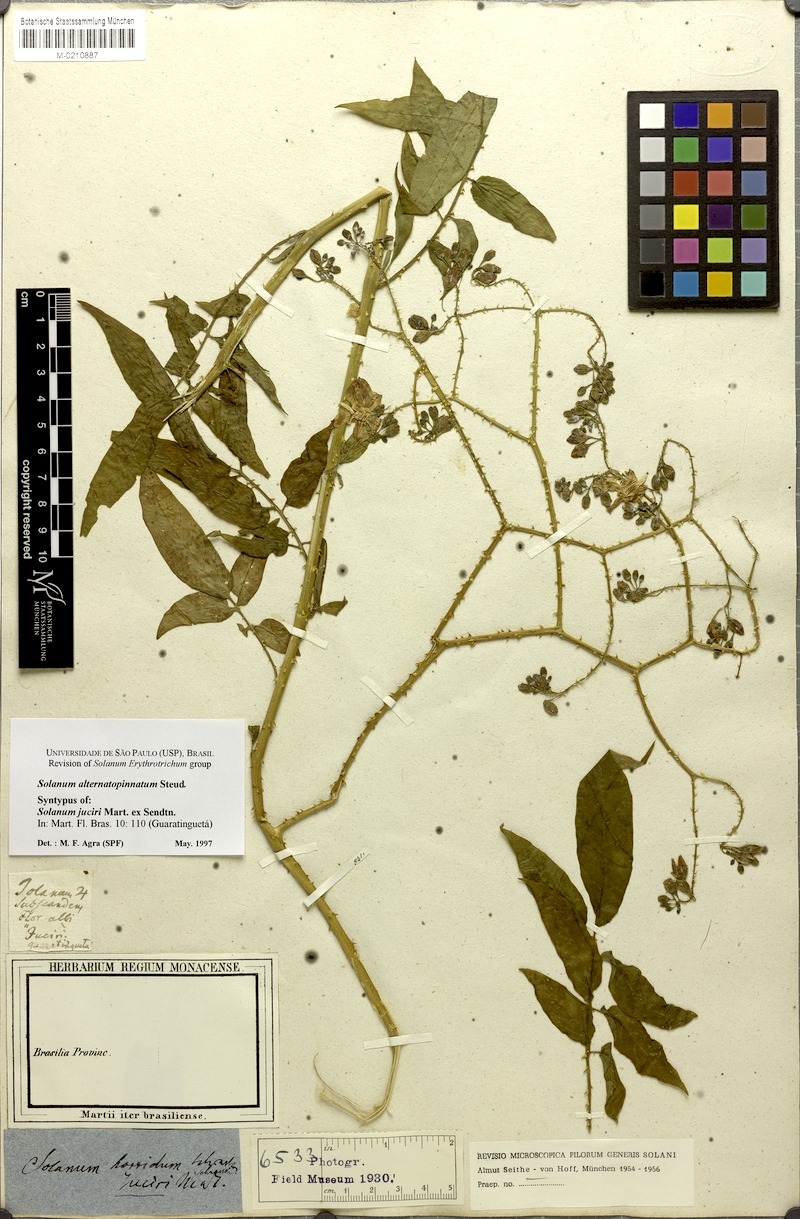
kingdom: Plantae
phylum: Tracheophyta
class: Magnoliopsida
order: Solanales
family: Solanaceae
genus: Solanum
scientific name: Solanum alternatopinnatum
